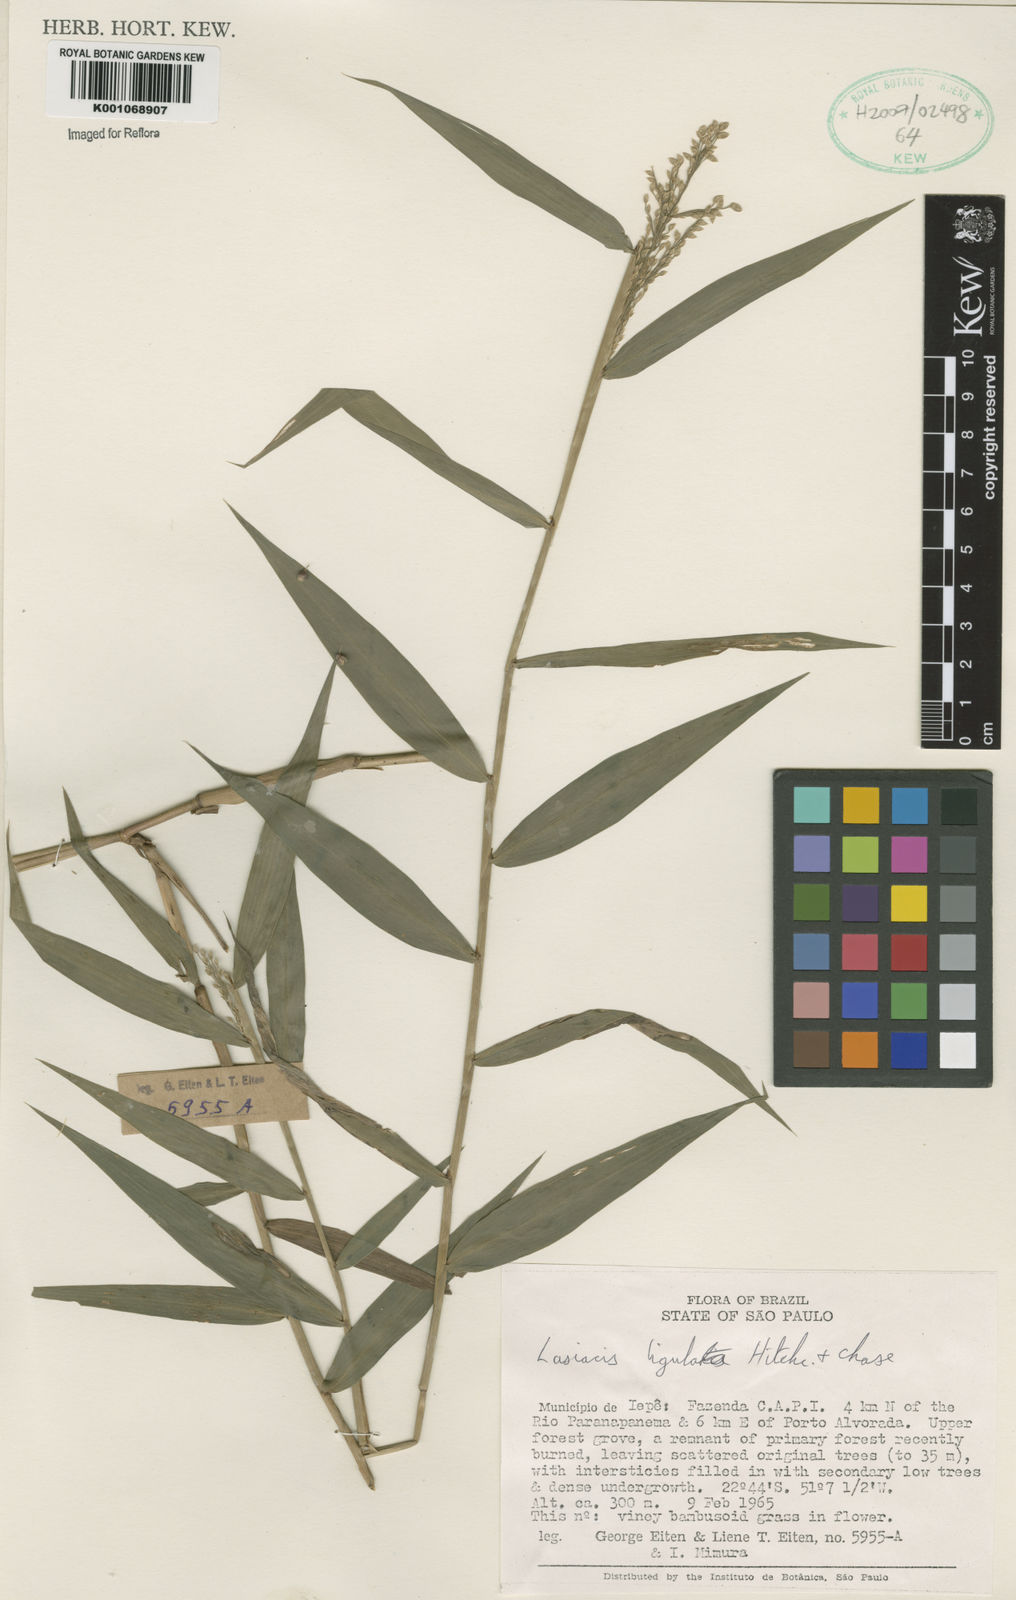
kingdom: Plantae
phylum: Tracheophyta
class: Liliopsida
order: Poales
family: Poaceae
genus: Lasiacis
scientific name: Lasiacis ligulata
